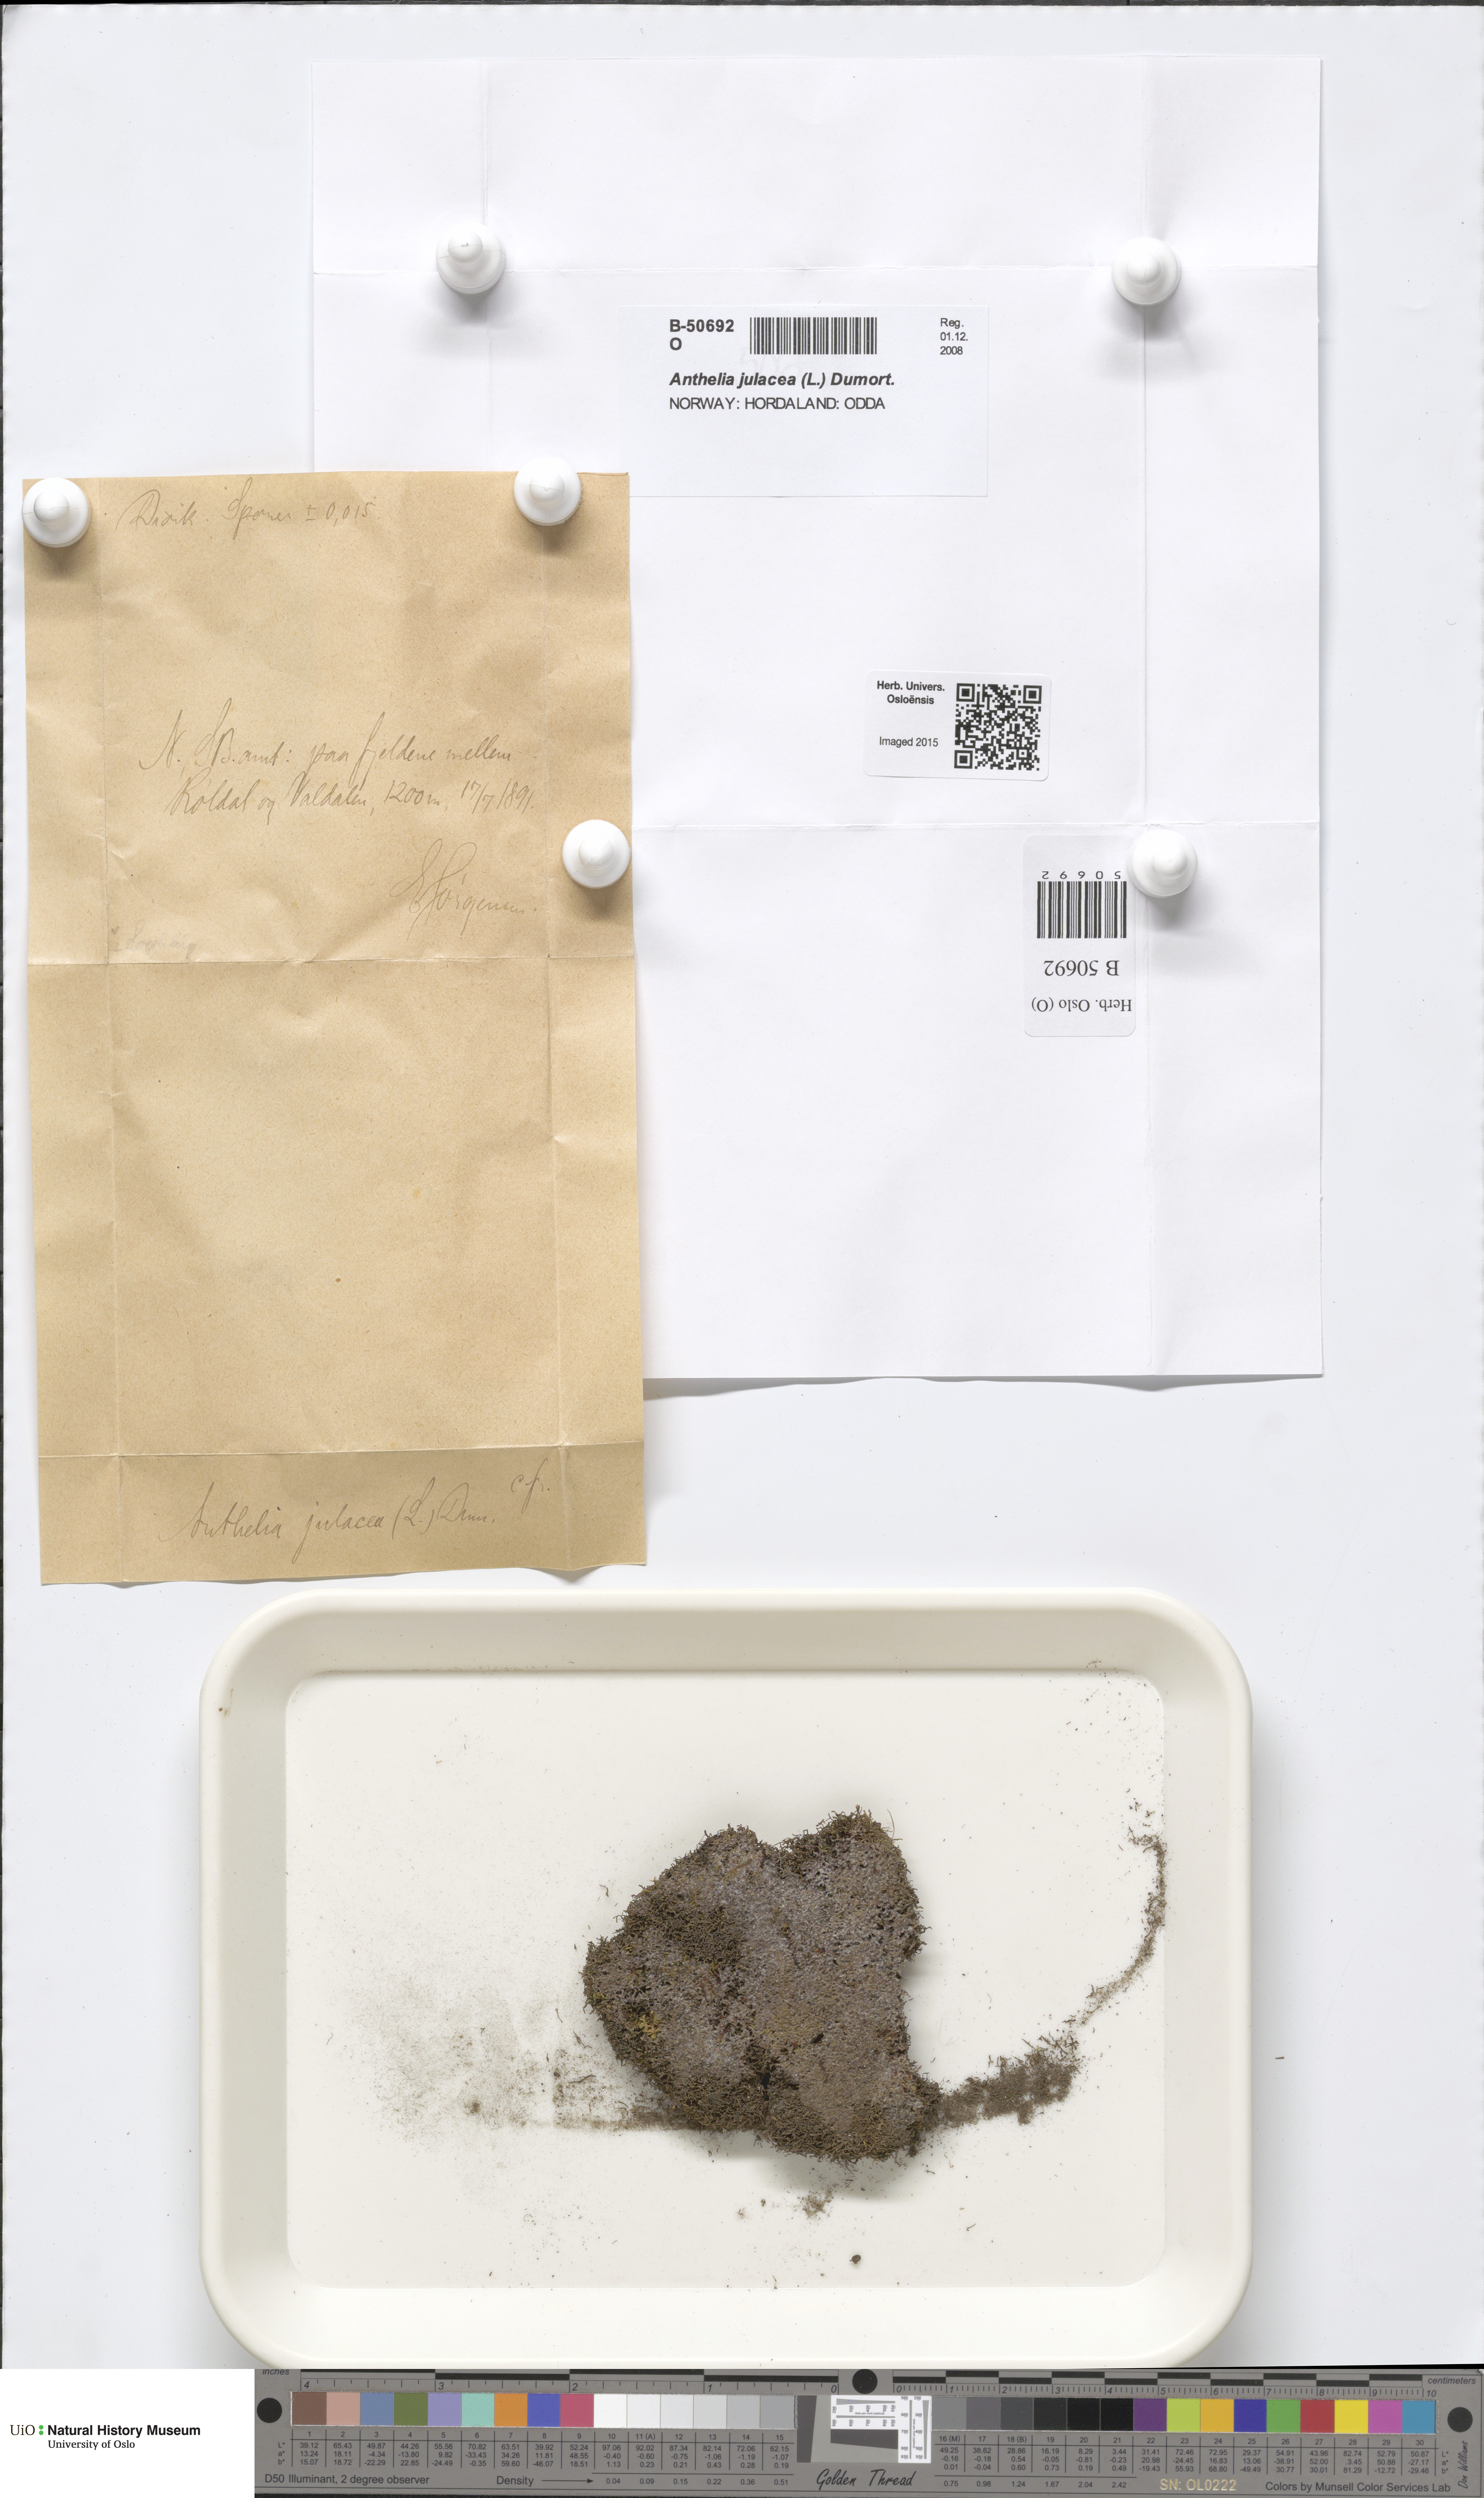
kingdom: Plantae
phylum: Marchantiophyta
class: Jungermanniopsida
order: Jungermanniales
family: Antheliaceae
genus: Anthelia
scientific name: Anthelia julacea
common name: Alpine silverwort
